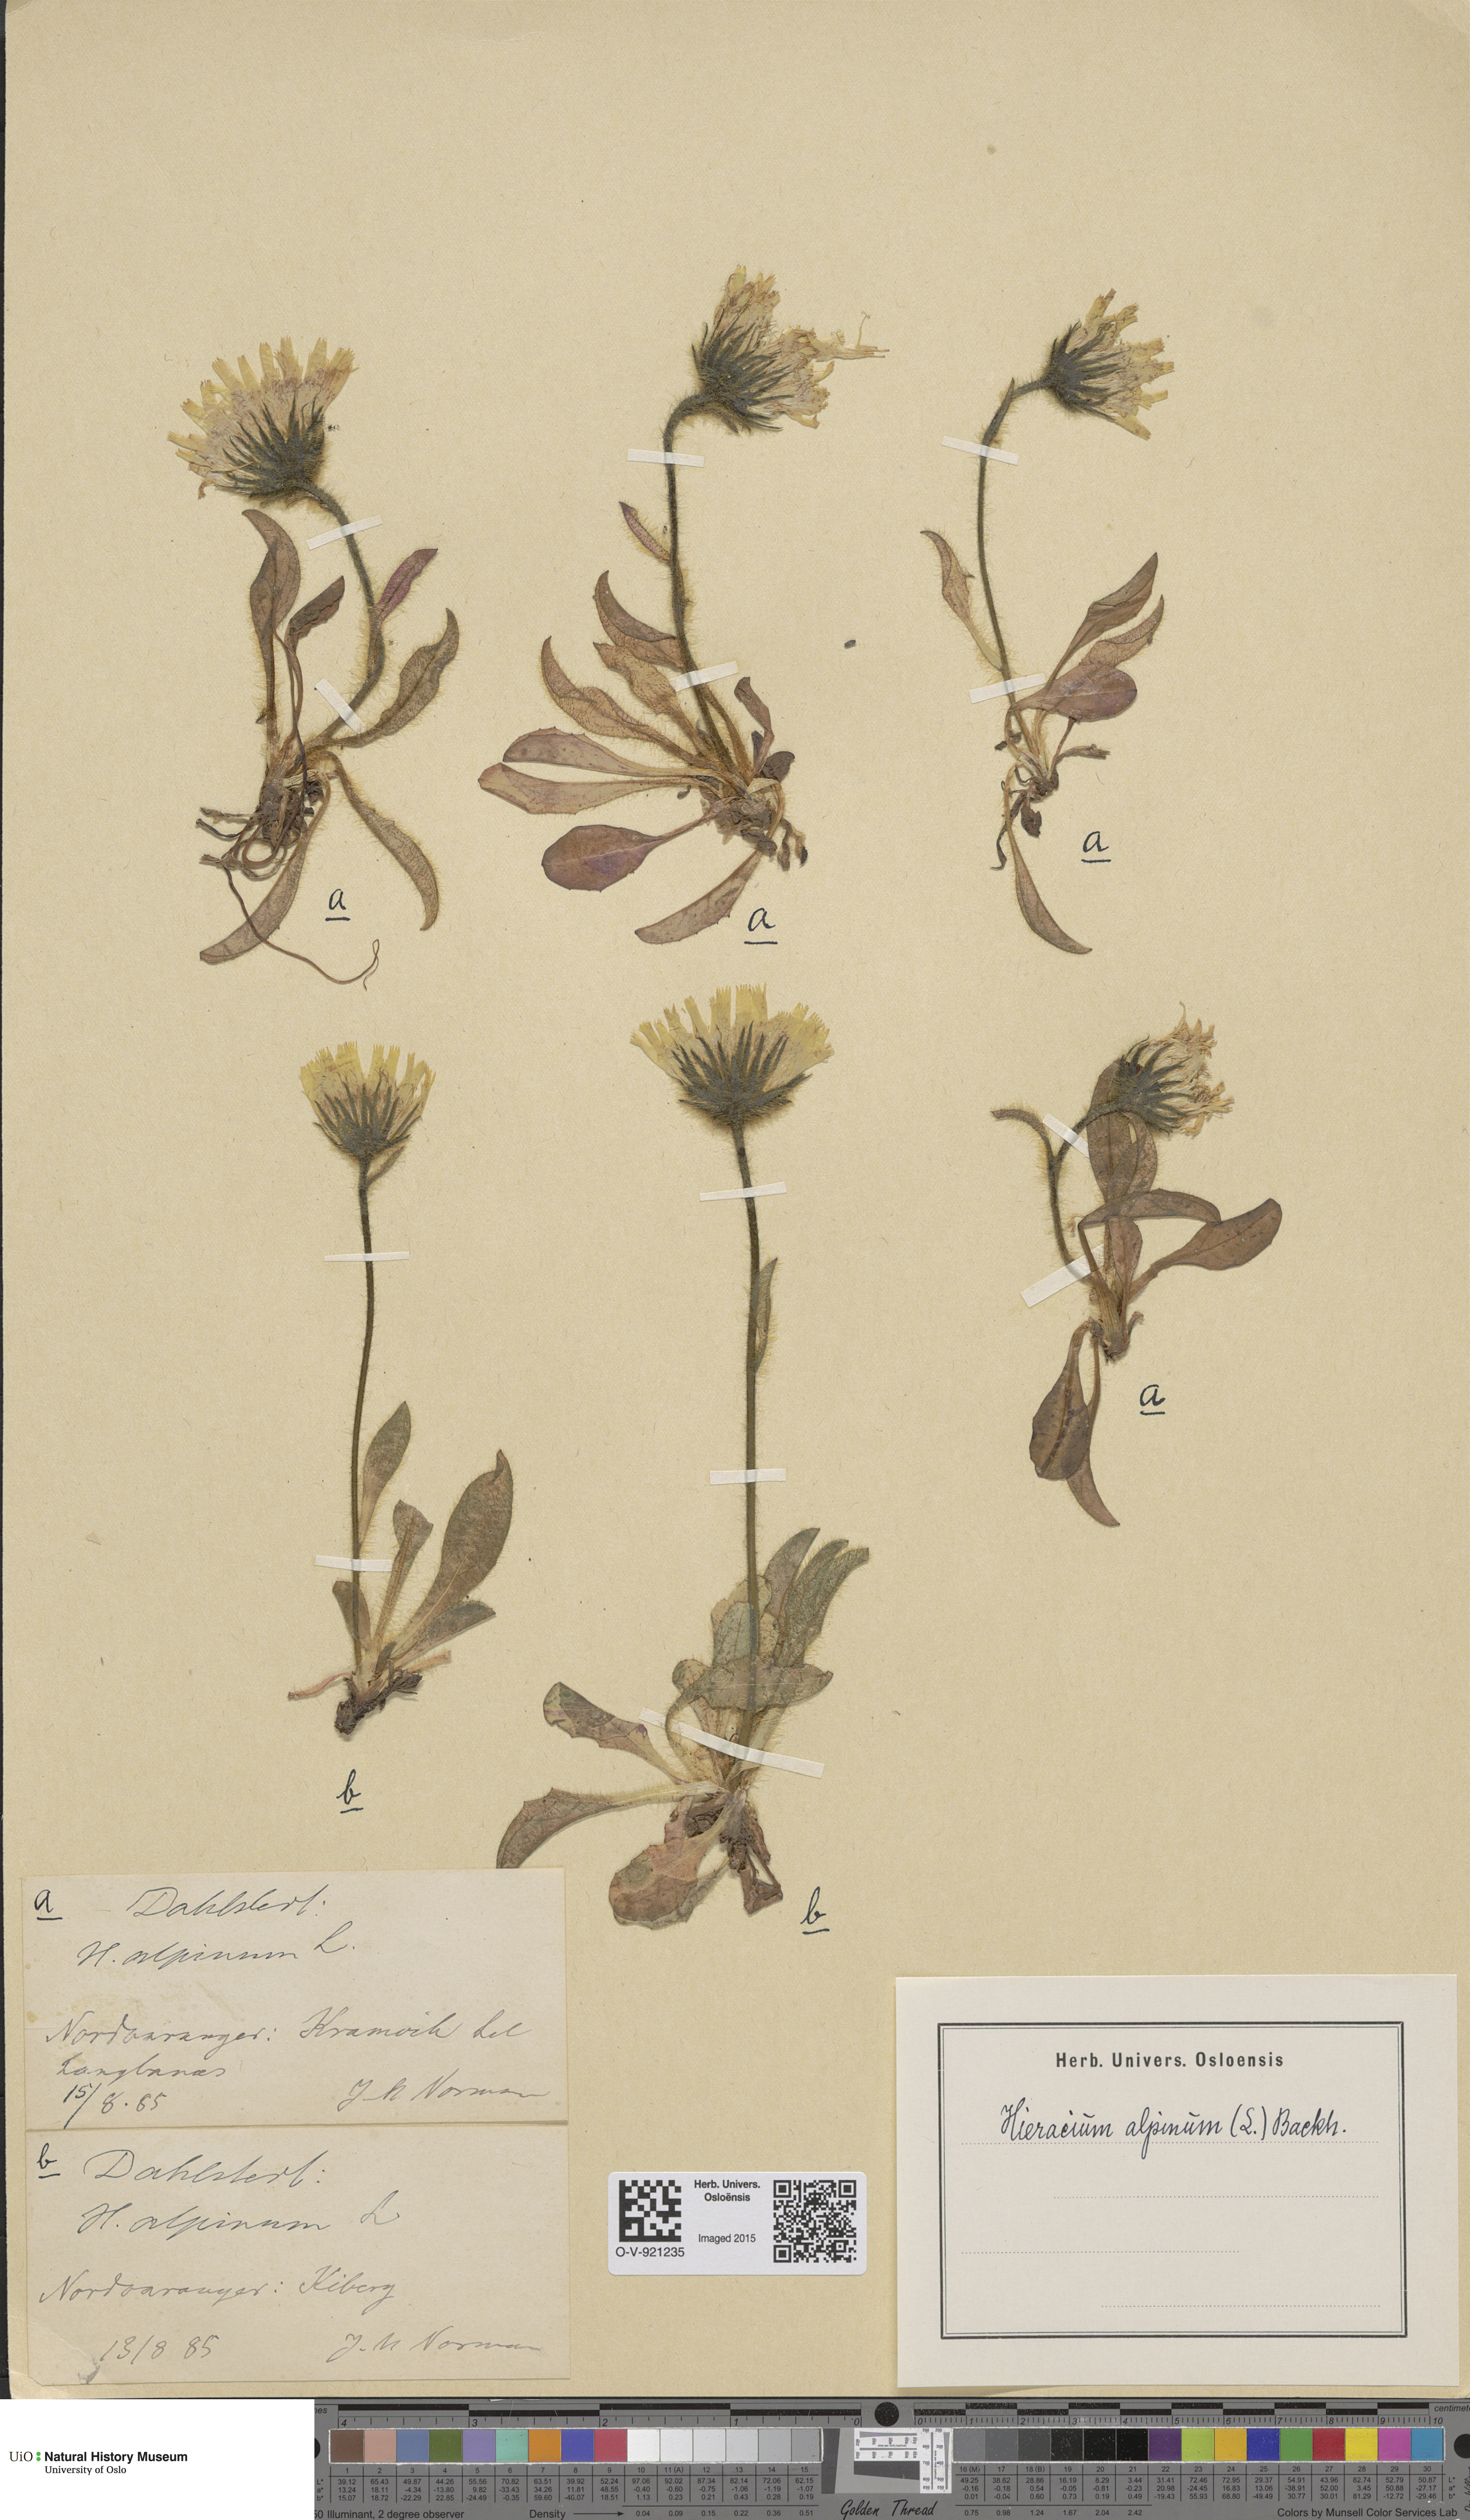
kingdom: Plantae
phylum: Tracheophyta
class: Magnoliopsida
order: Asterales
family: Asteraceae
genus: Hieracium
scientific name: Hieracium alpinum
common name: Alpine hawkweed
